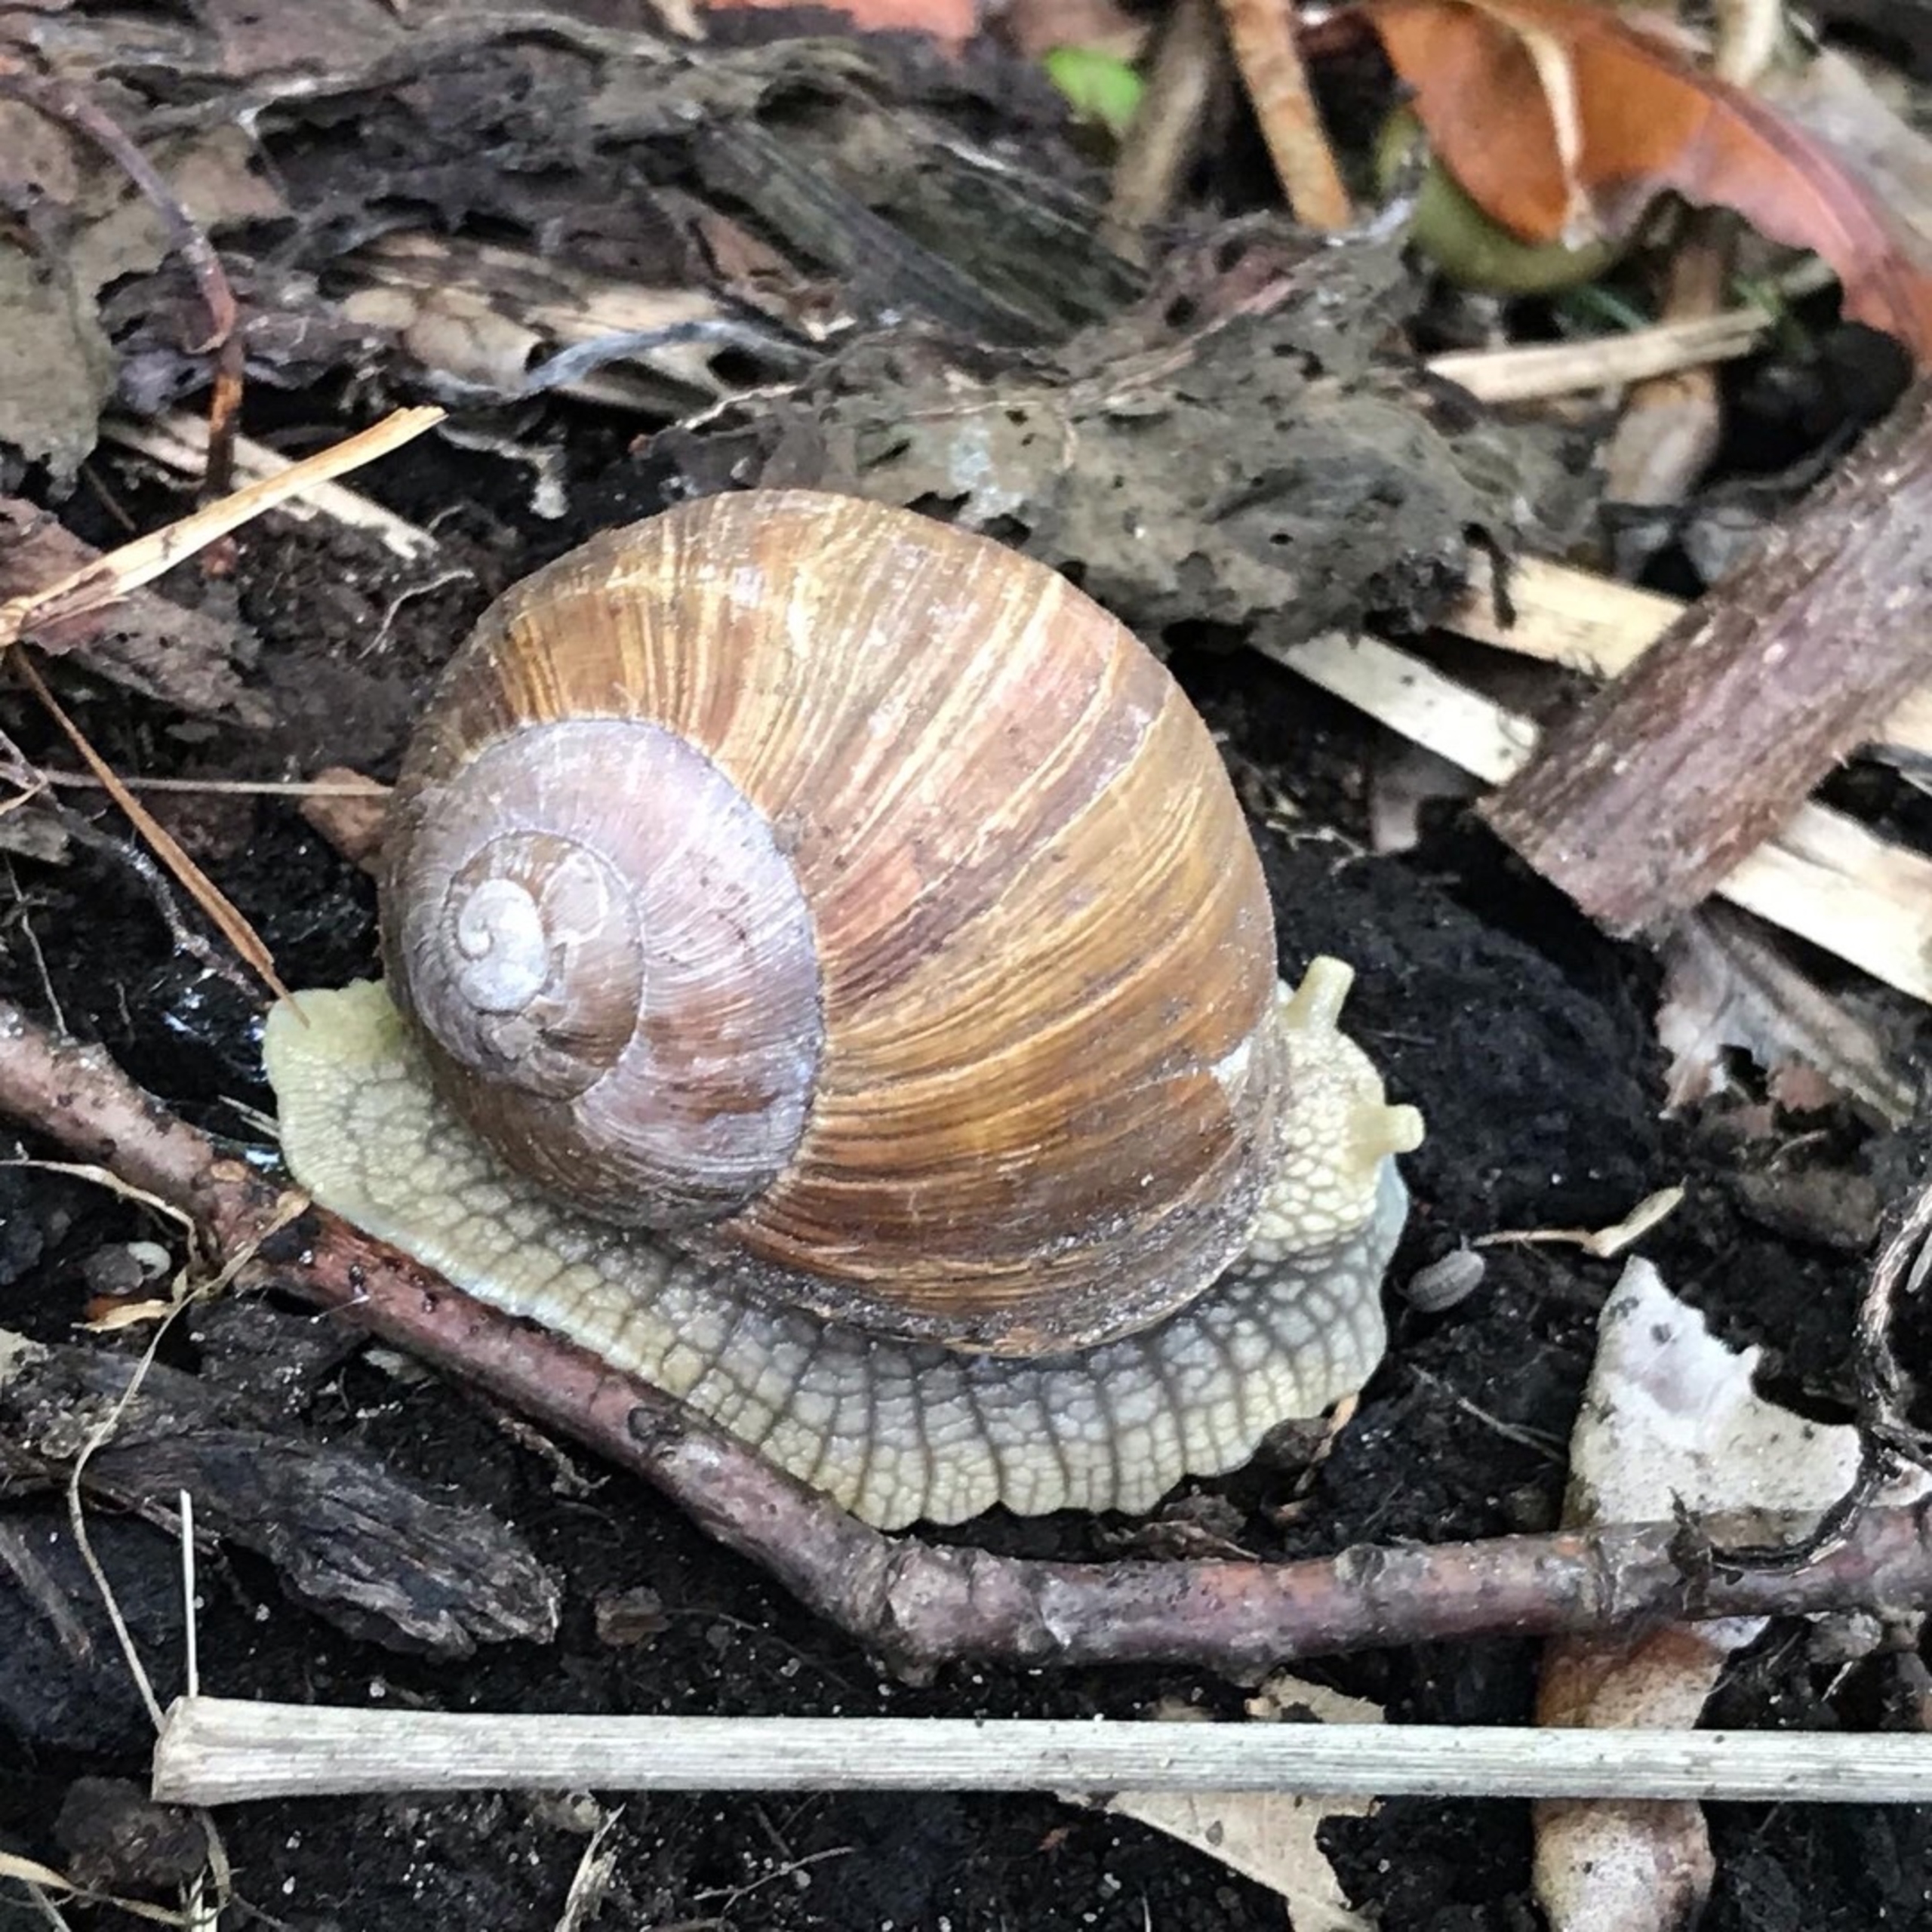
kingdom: Animalia
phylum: Mollusca
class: Gastropoda
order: Stylommatophora
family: Helicidae
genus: Helix
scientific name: Helix pomatia
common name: Vinbjergsnegl
